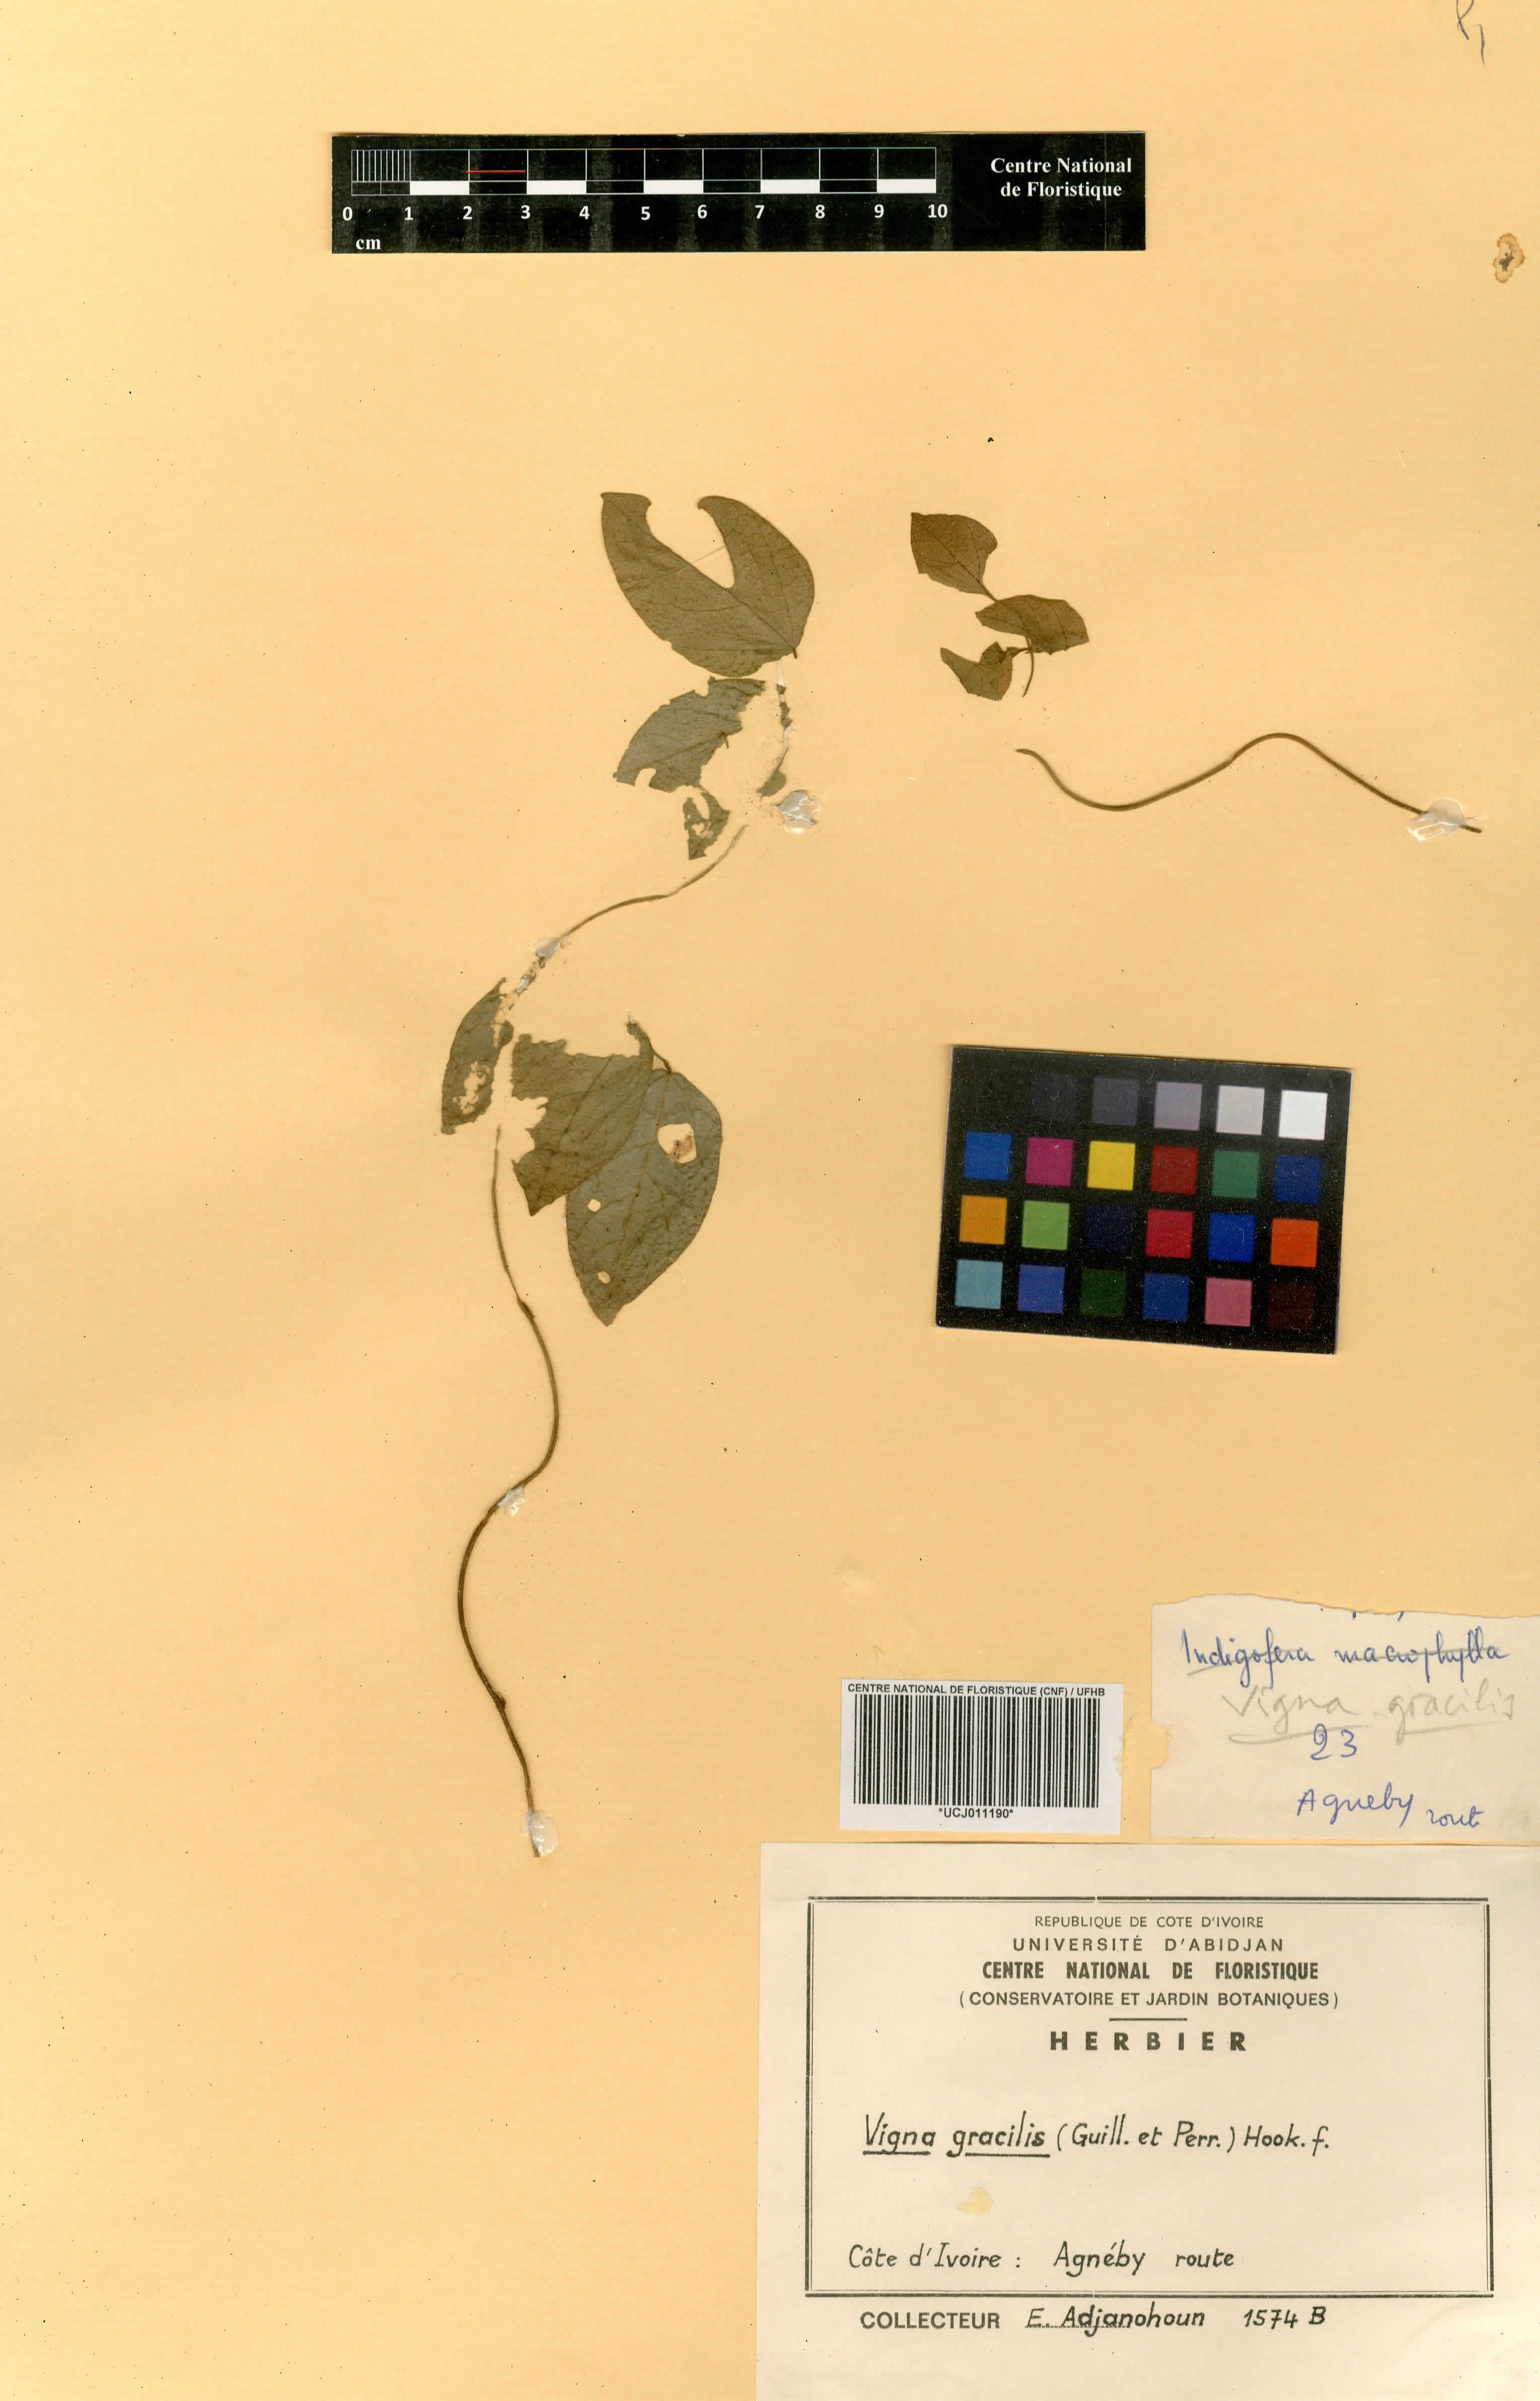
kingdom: Plantae
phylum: Tracheophyta
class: Magnoliopsida
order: Fabales
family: Fabaceae
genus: Vigna
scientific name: Vigna gracilis
